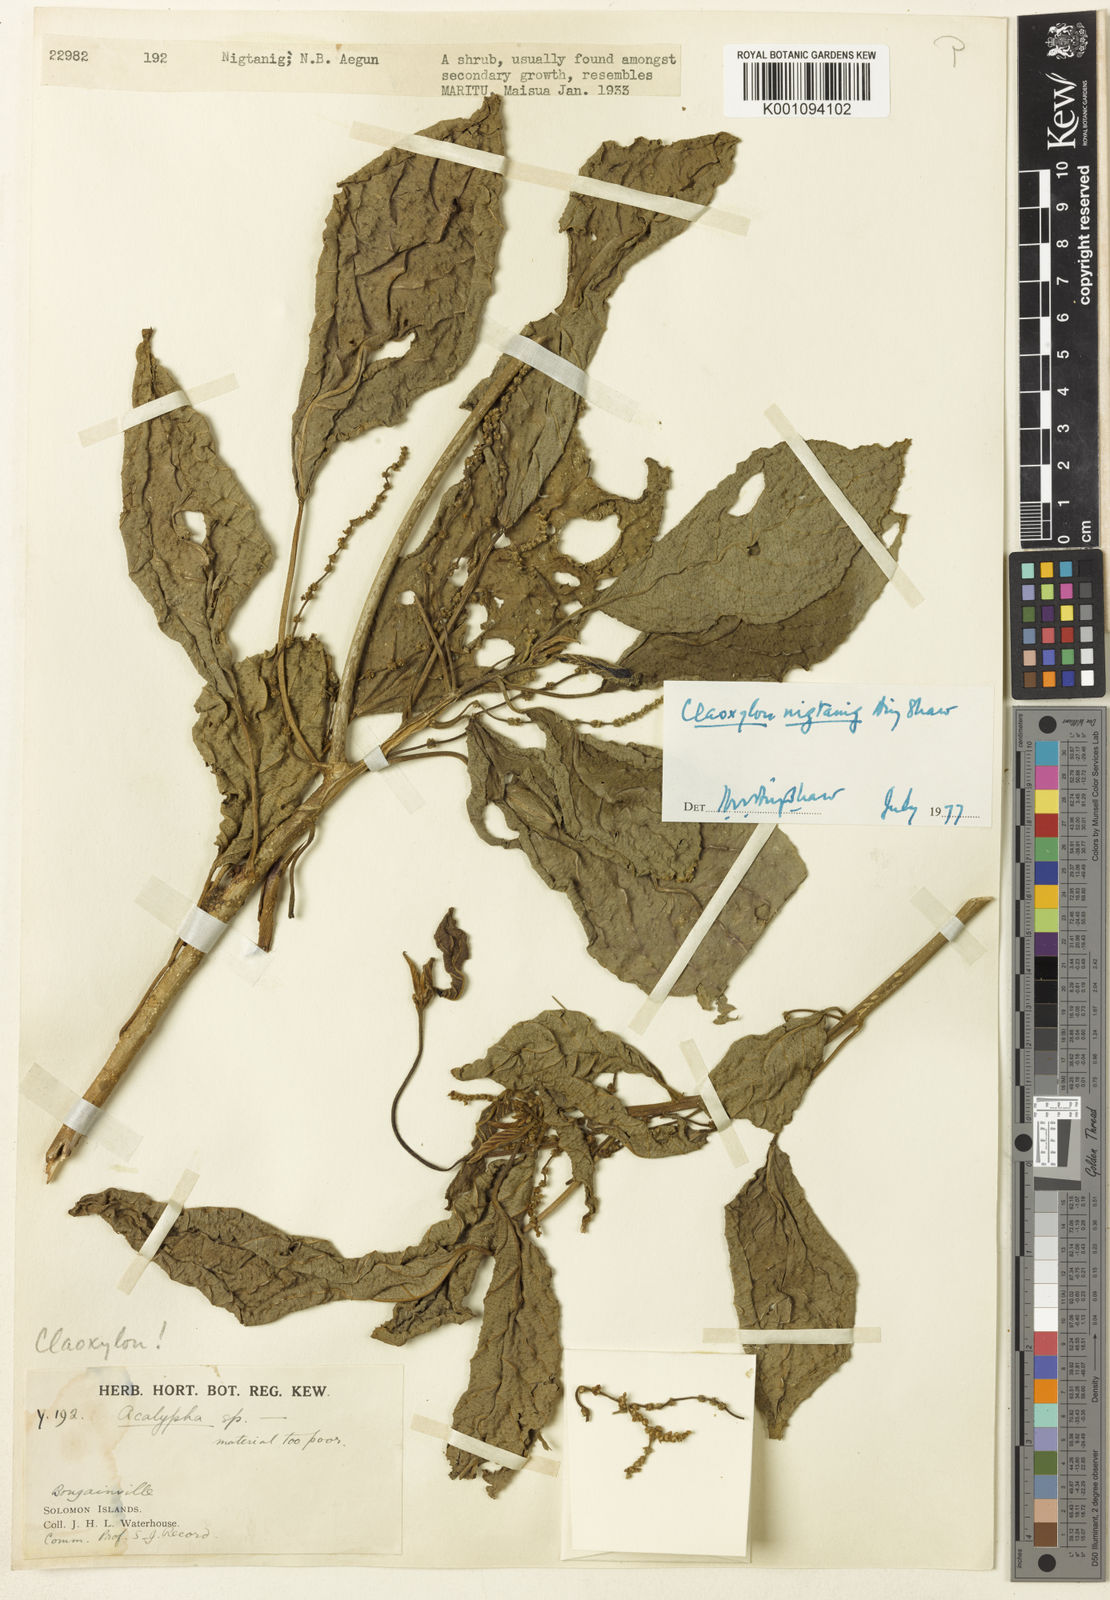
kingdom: Plantae
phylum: Tracheophyta
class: Magnoliopsida
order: Malpighiales
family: Euphorbiaceae
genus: Claoxylon
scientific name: Claoxylon nigtanig
